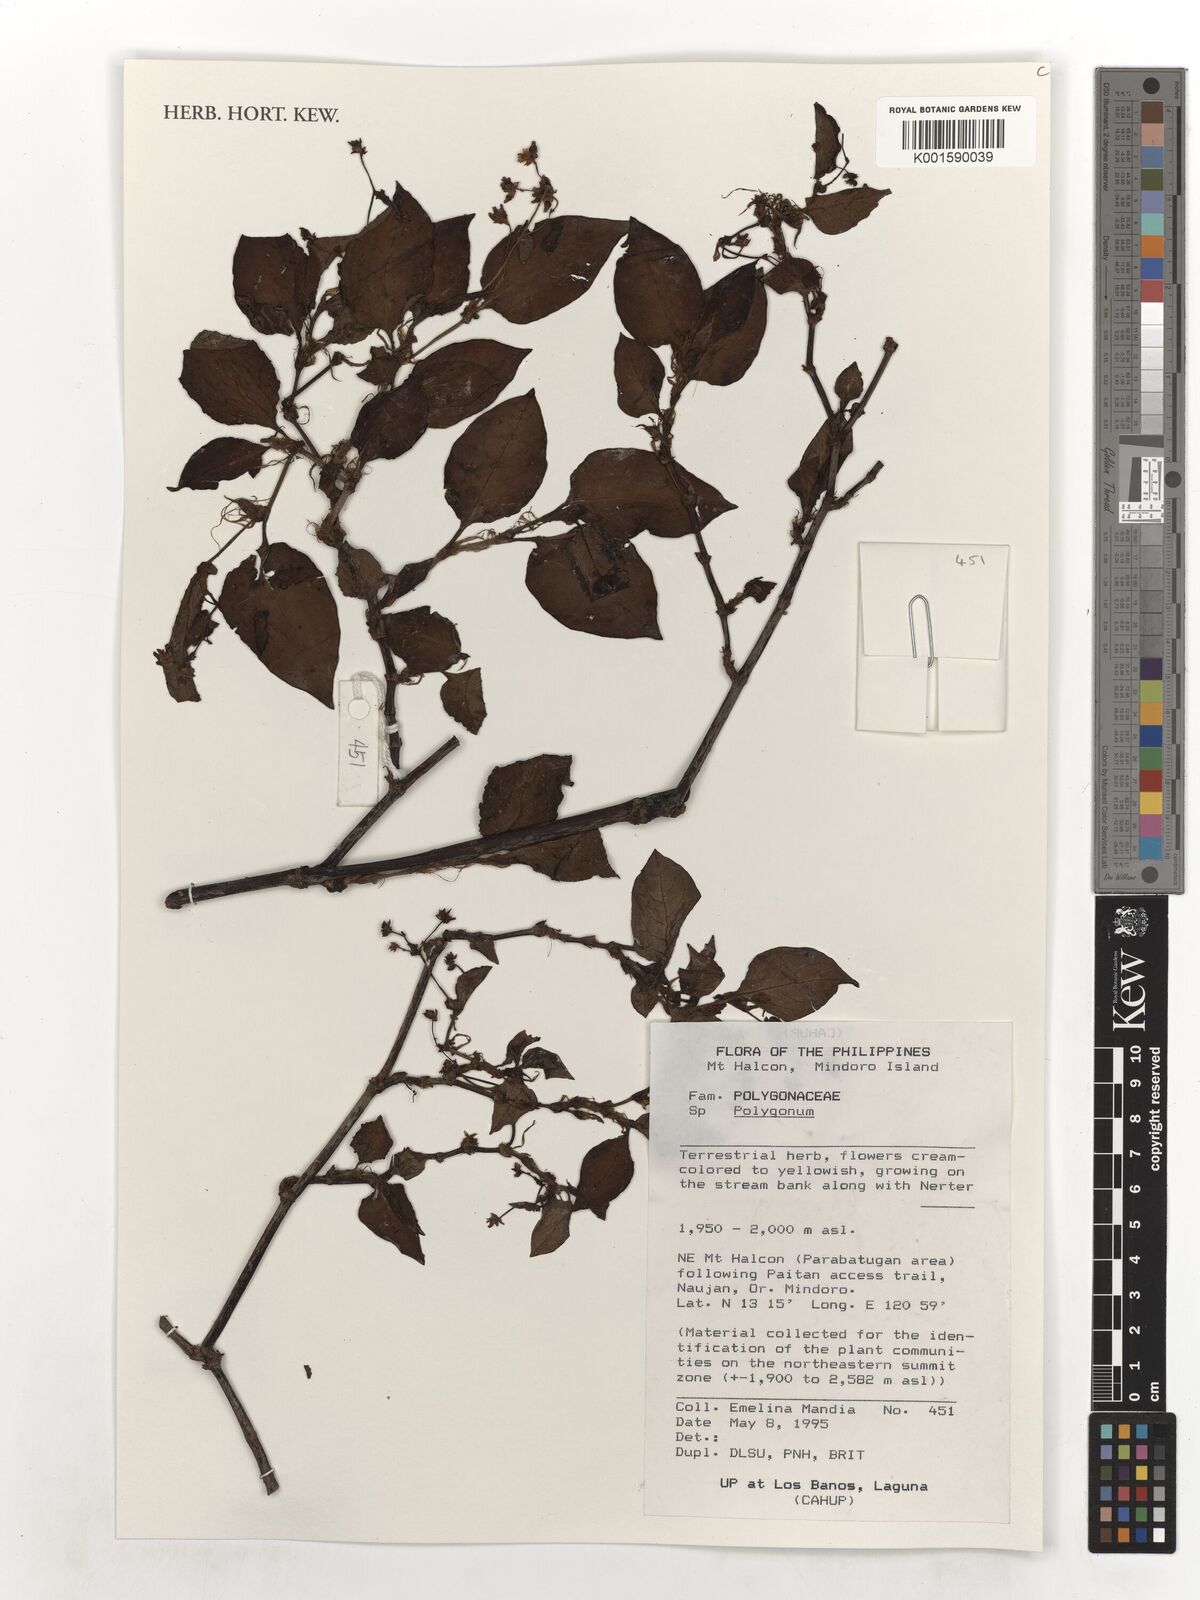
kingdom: Plantae
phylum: Tracheophyta
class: Magnoliopsida
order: Caryophyllales
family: Polygonaceae
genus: Polygonum
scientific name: Polygonum
